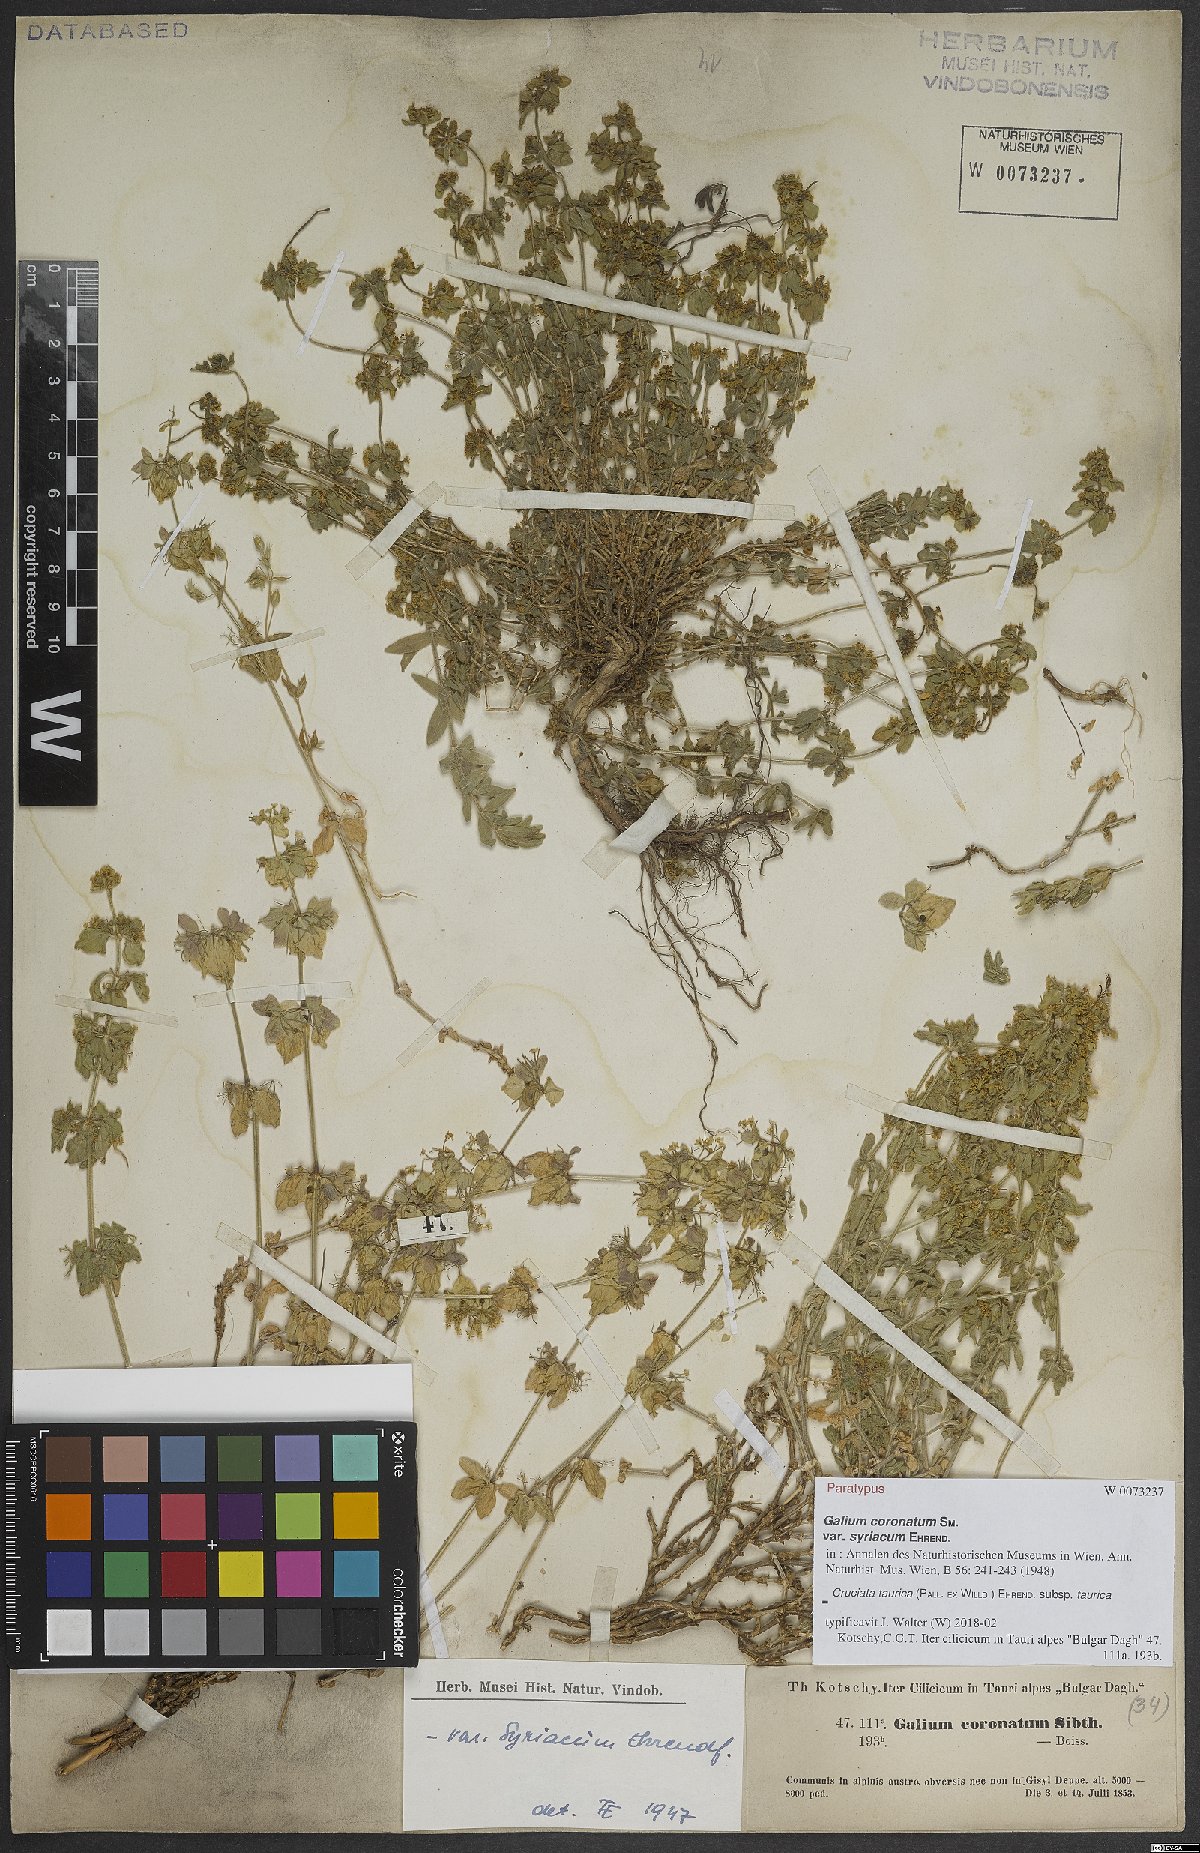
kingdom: Plantae
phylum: Tracheophyta
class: Magnoliopsida
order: Gentianales
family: Rubiaceae
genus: Cruciata
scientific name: Cruciata taurica
